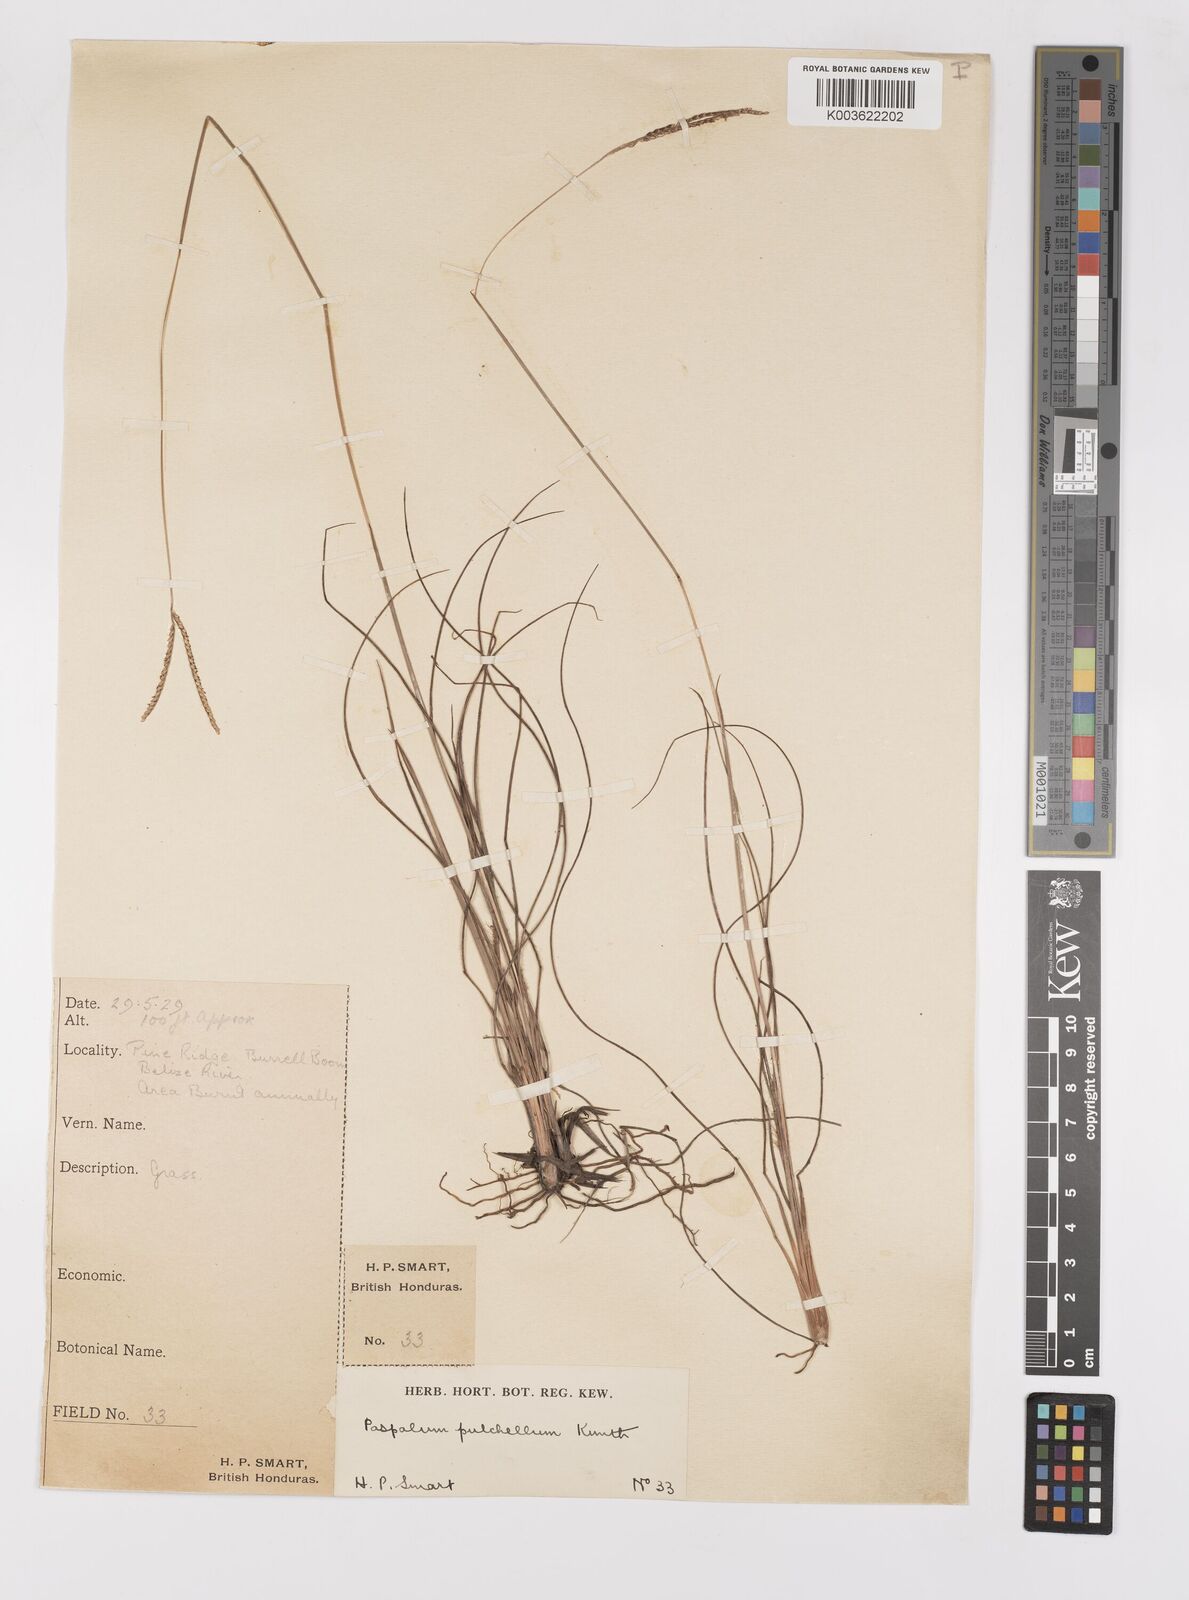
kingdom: Plantae
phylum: Tracheophyta
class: Liliopsida
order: Poales
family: Poaceae
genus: Paspalum
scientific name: Paspalum pulchellum
